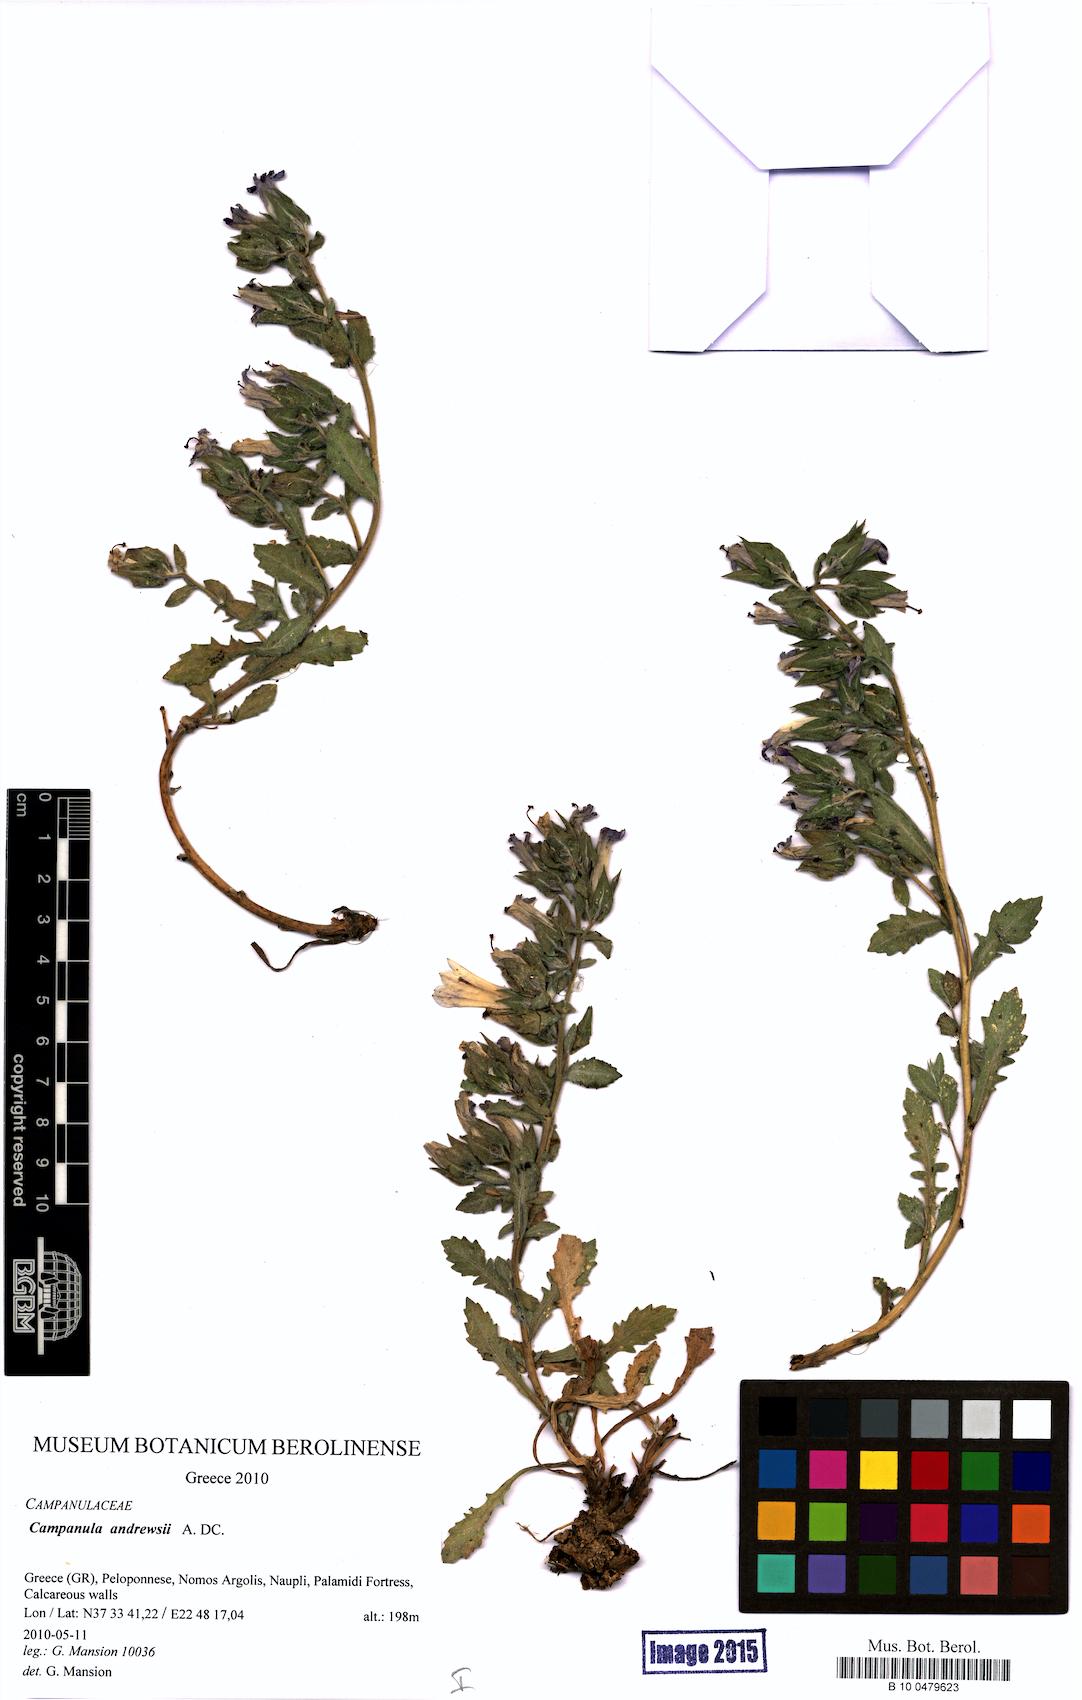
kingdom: Plantae
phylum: Tracheophyta
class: Magnoliopsida
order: Asterales
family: Campanulaceae
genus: Campanula
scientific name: Campanula andrewsii
